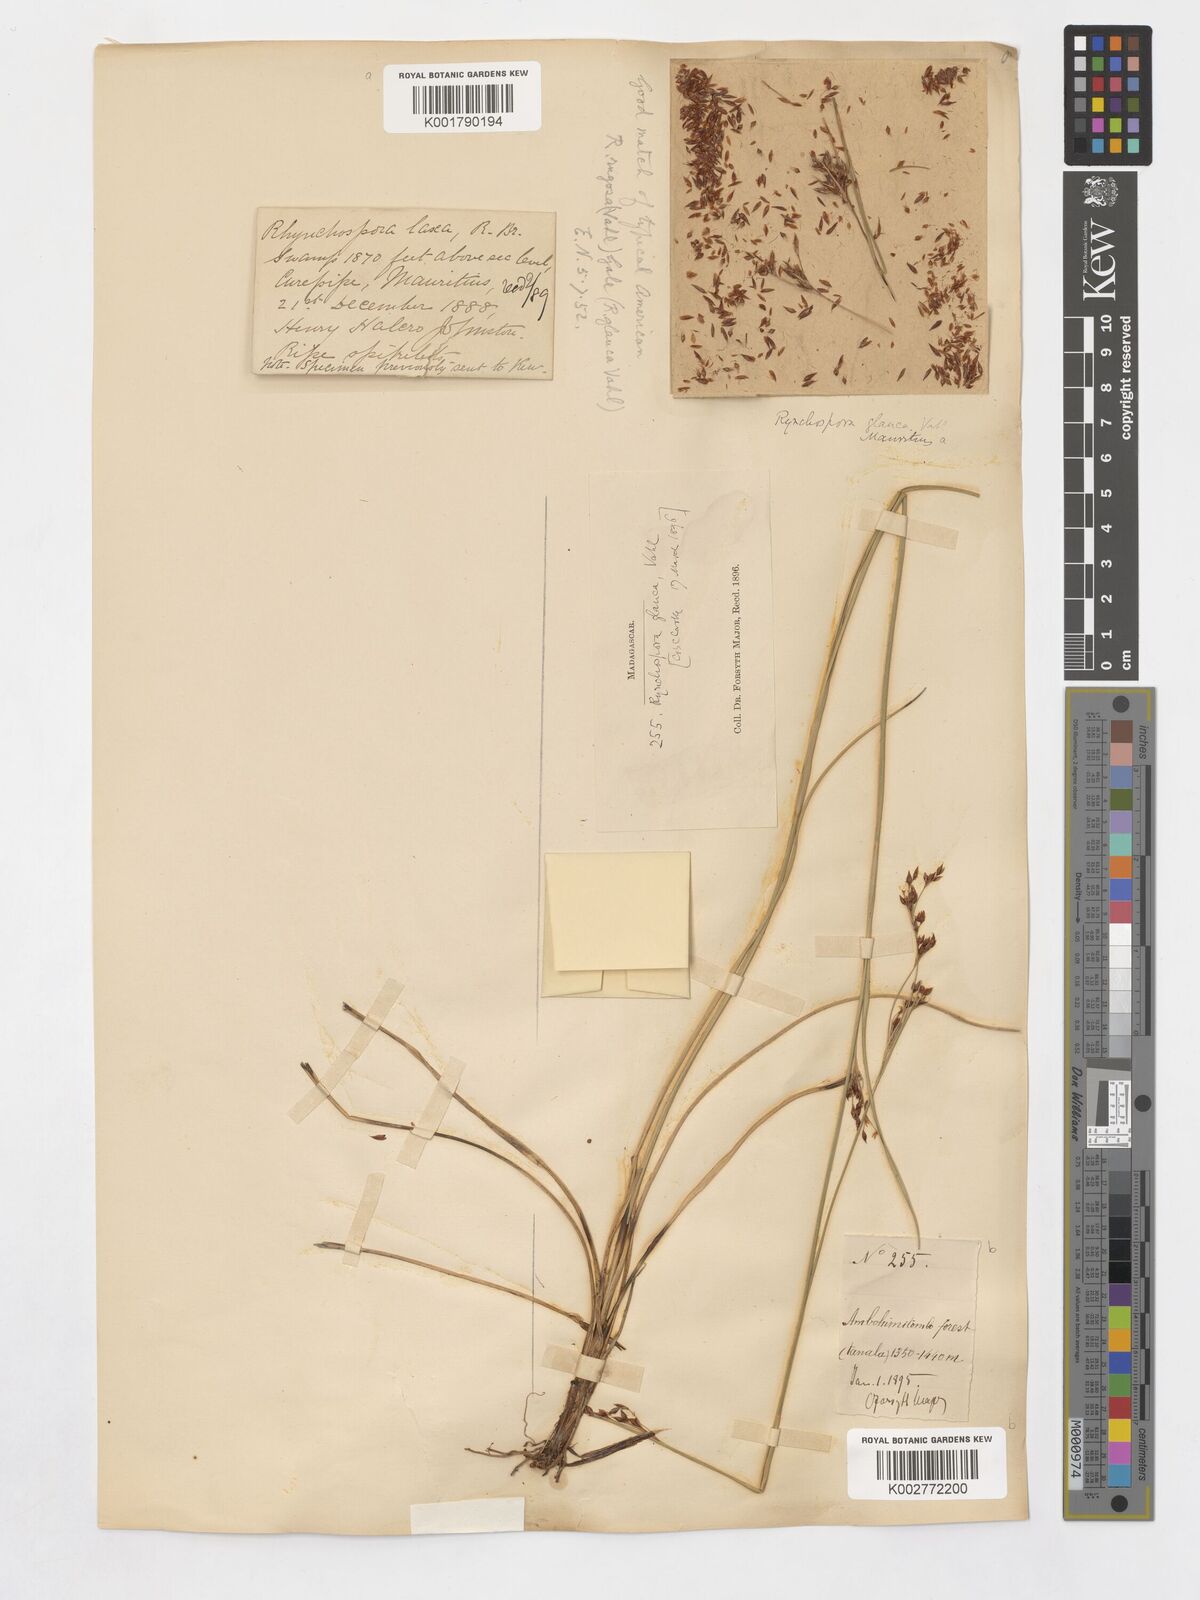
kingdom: Plantae
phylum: Tracheophyta
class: Liliopsida
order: Poales
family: Cyperaceae
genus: Rhynchospora
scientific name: Rhynchospora rugosa
